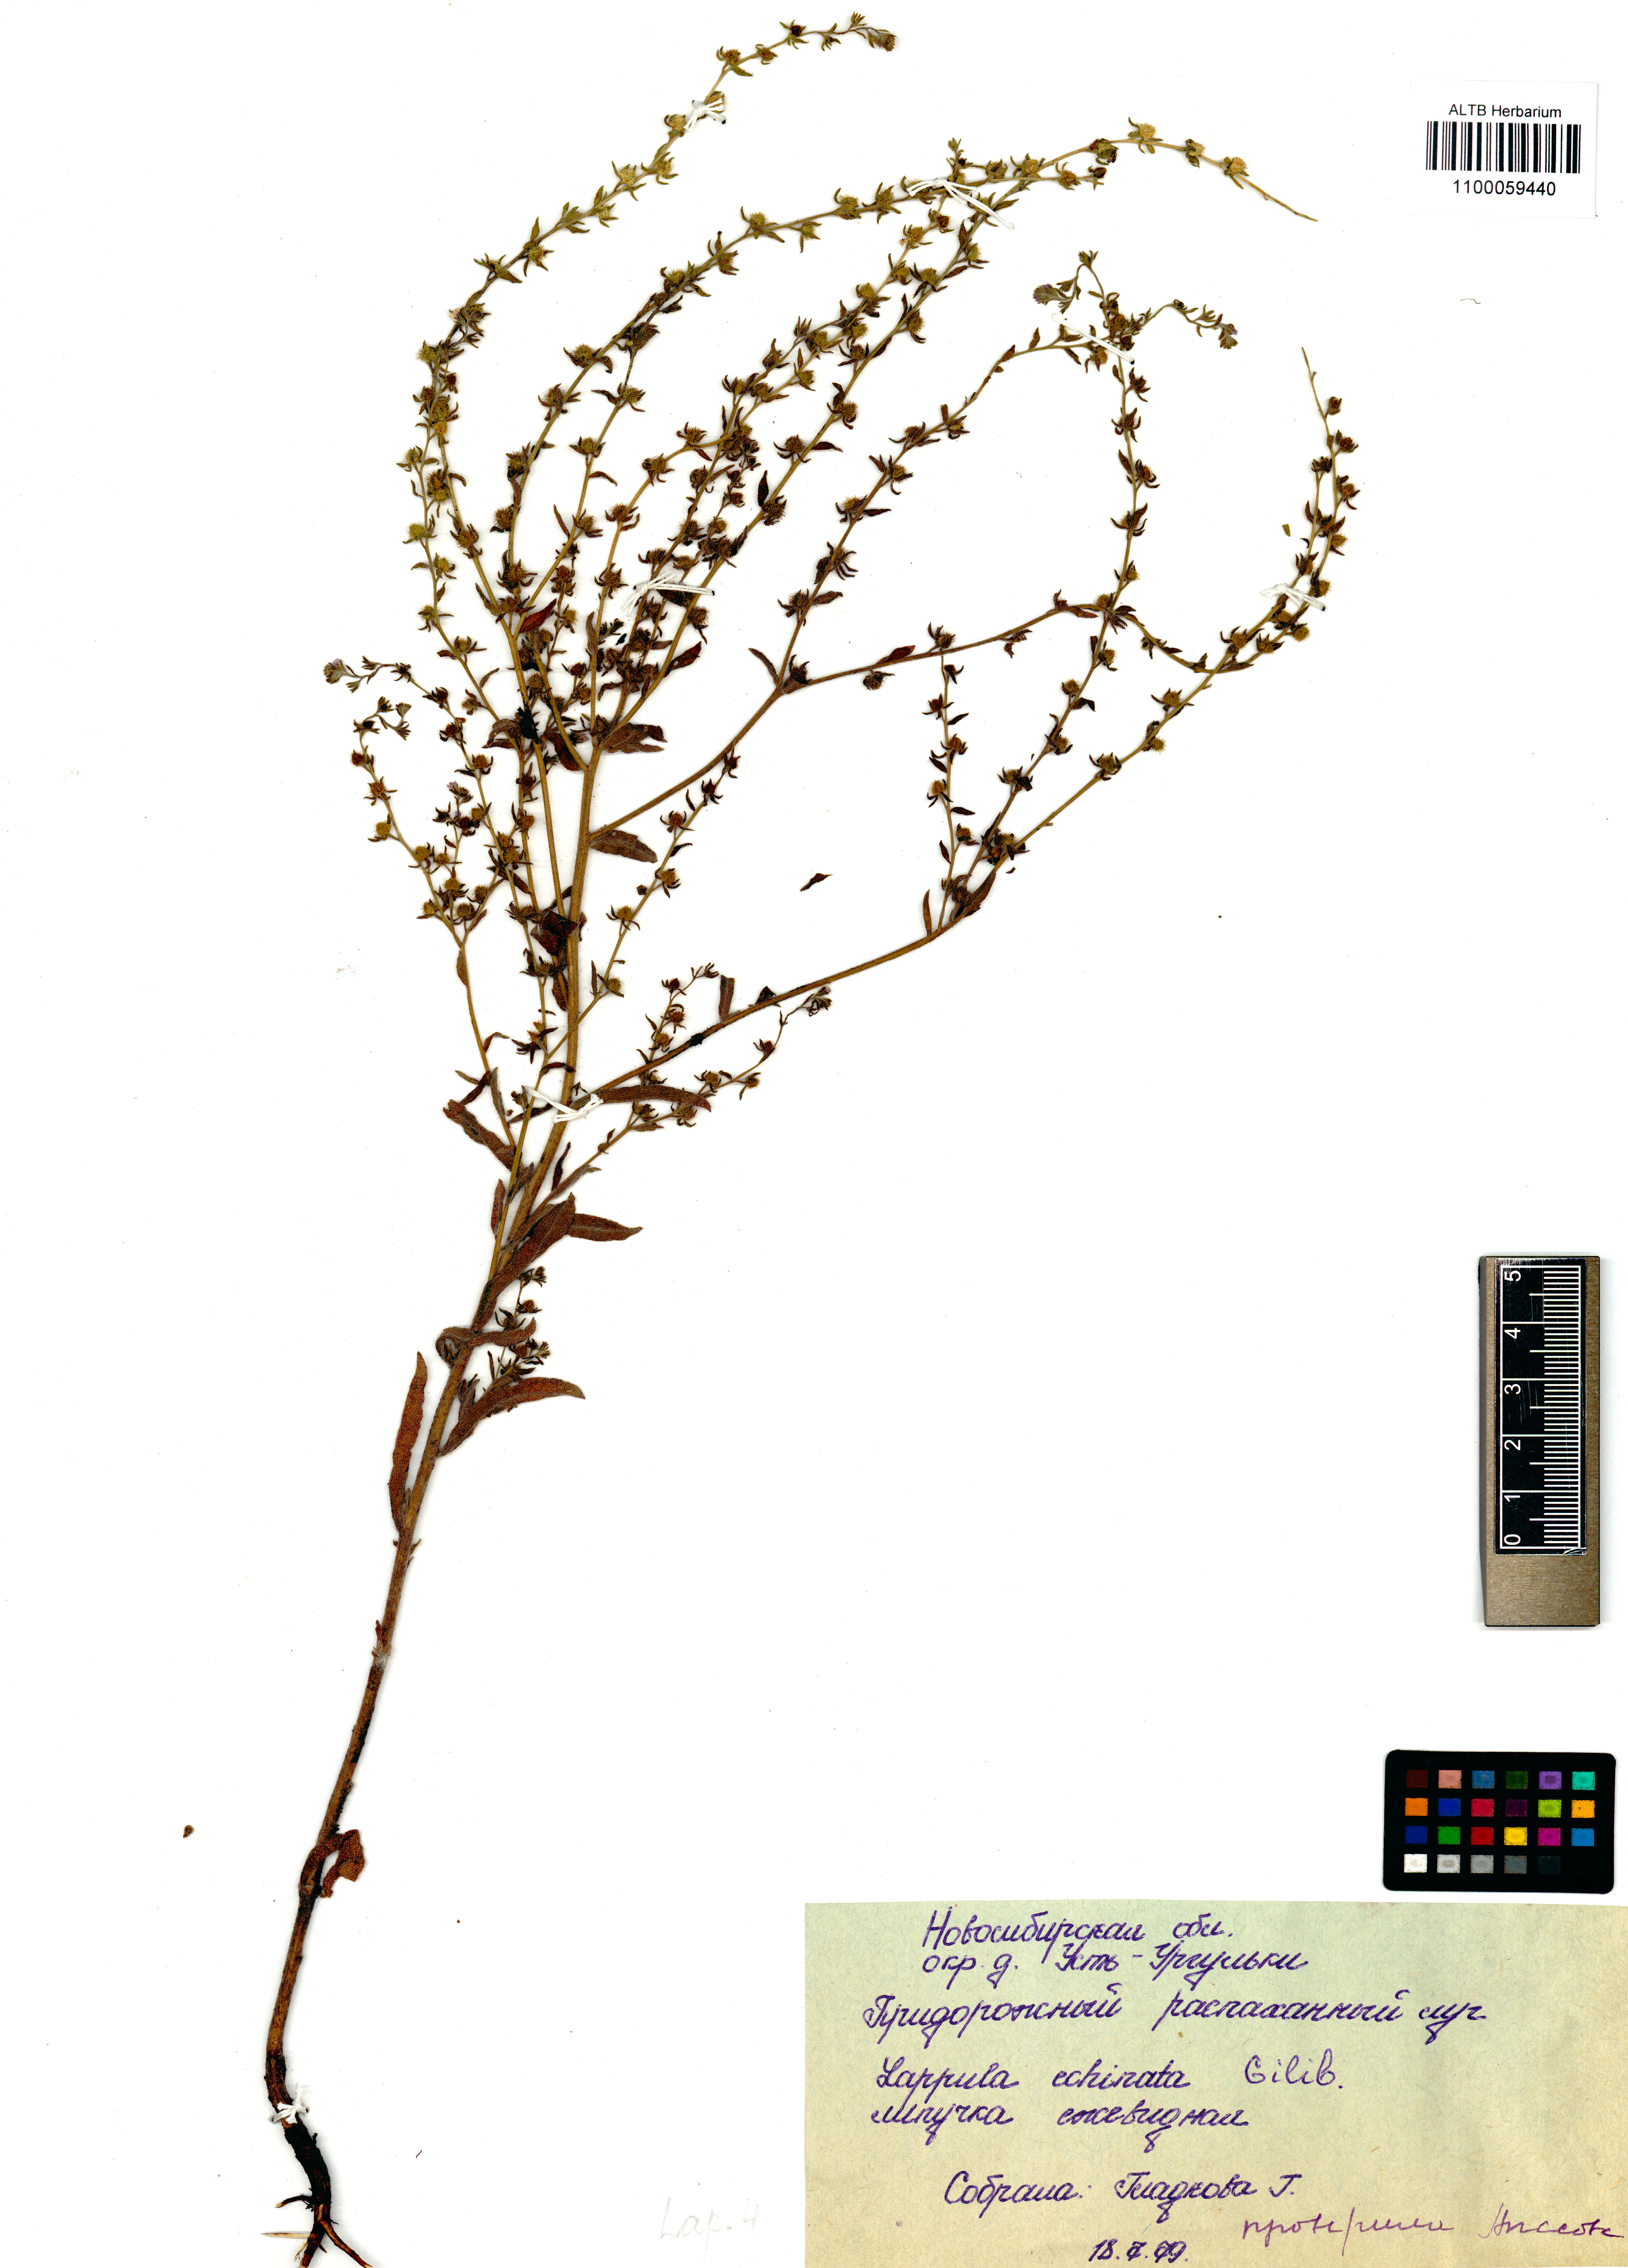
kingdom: Plantae
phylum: Tracheophyta
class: Magnoliopsida
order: Boraginales
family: Boraginaceae
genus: Lappula
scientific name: Lappula squarrosa
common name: European stickseed
